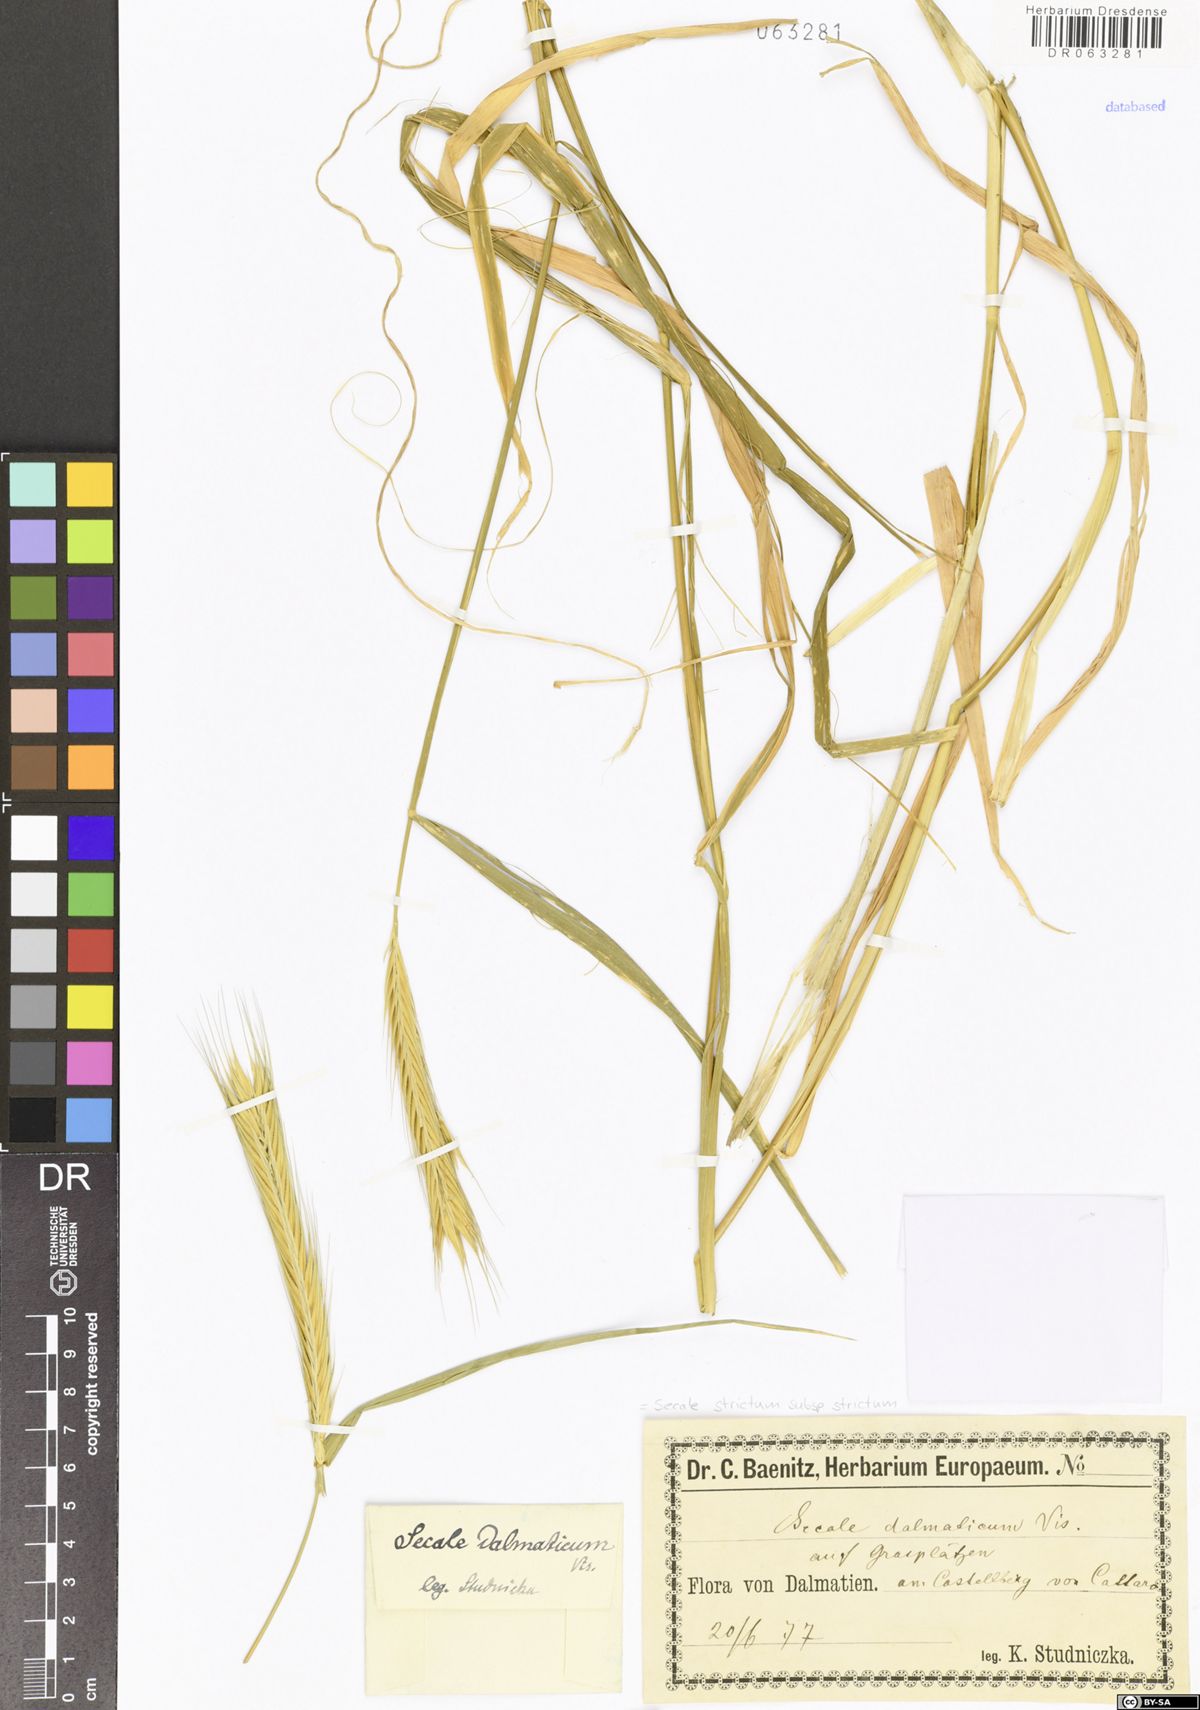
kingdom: Plantae
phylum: Tracheophyta
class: Liliopsida
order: Poales
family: Poaceae
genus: Secale
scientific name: Secale strictum
